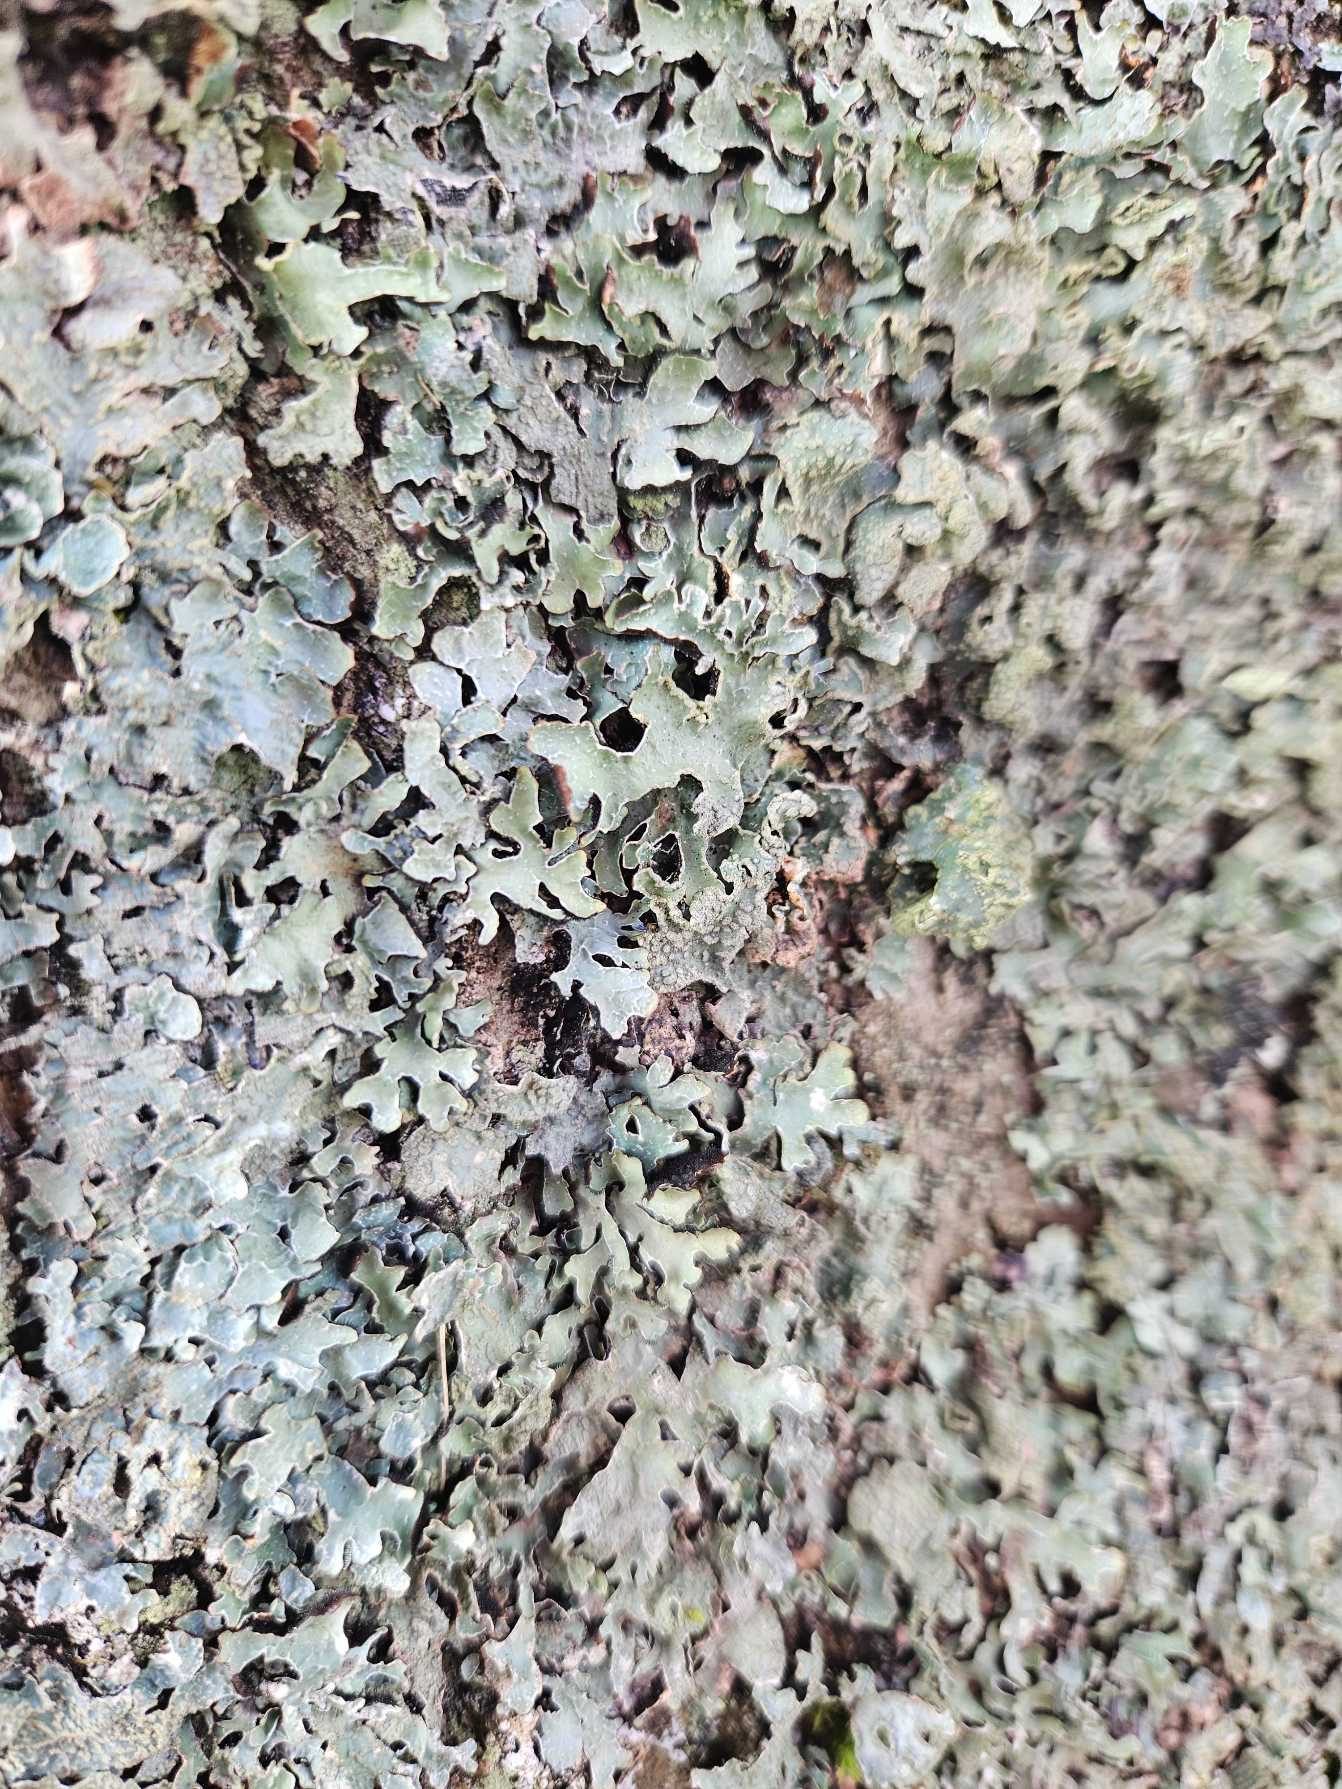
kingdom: Fungi
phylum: Ascomycota
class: Lecanoromycetes
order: Lecanorales
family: Parmeliaceae
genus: Parmelia
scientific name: Parmelia sulcata
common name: Rynket skållav
